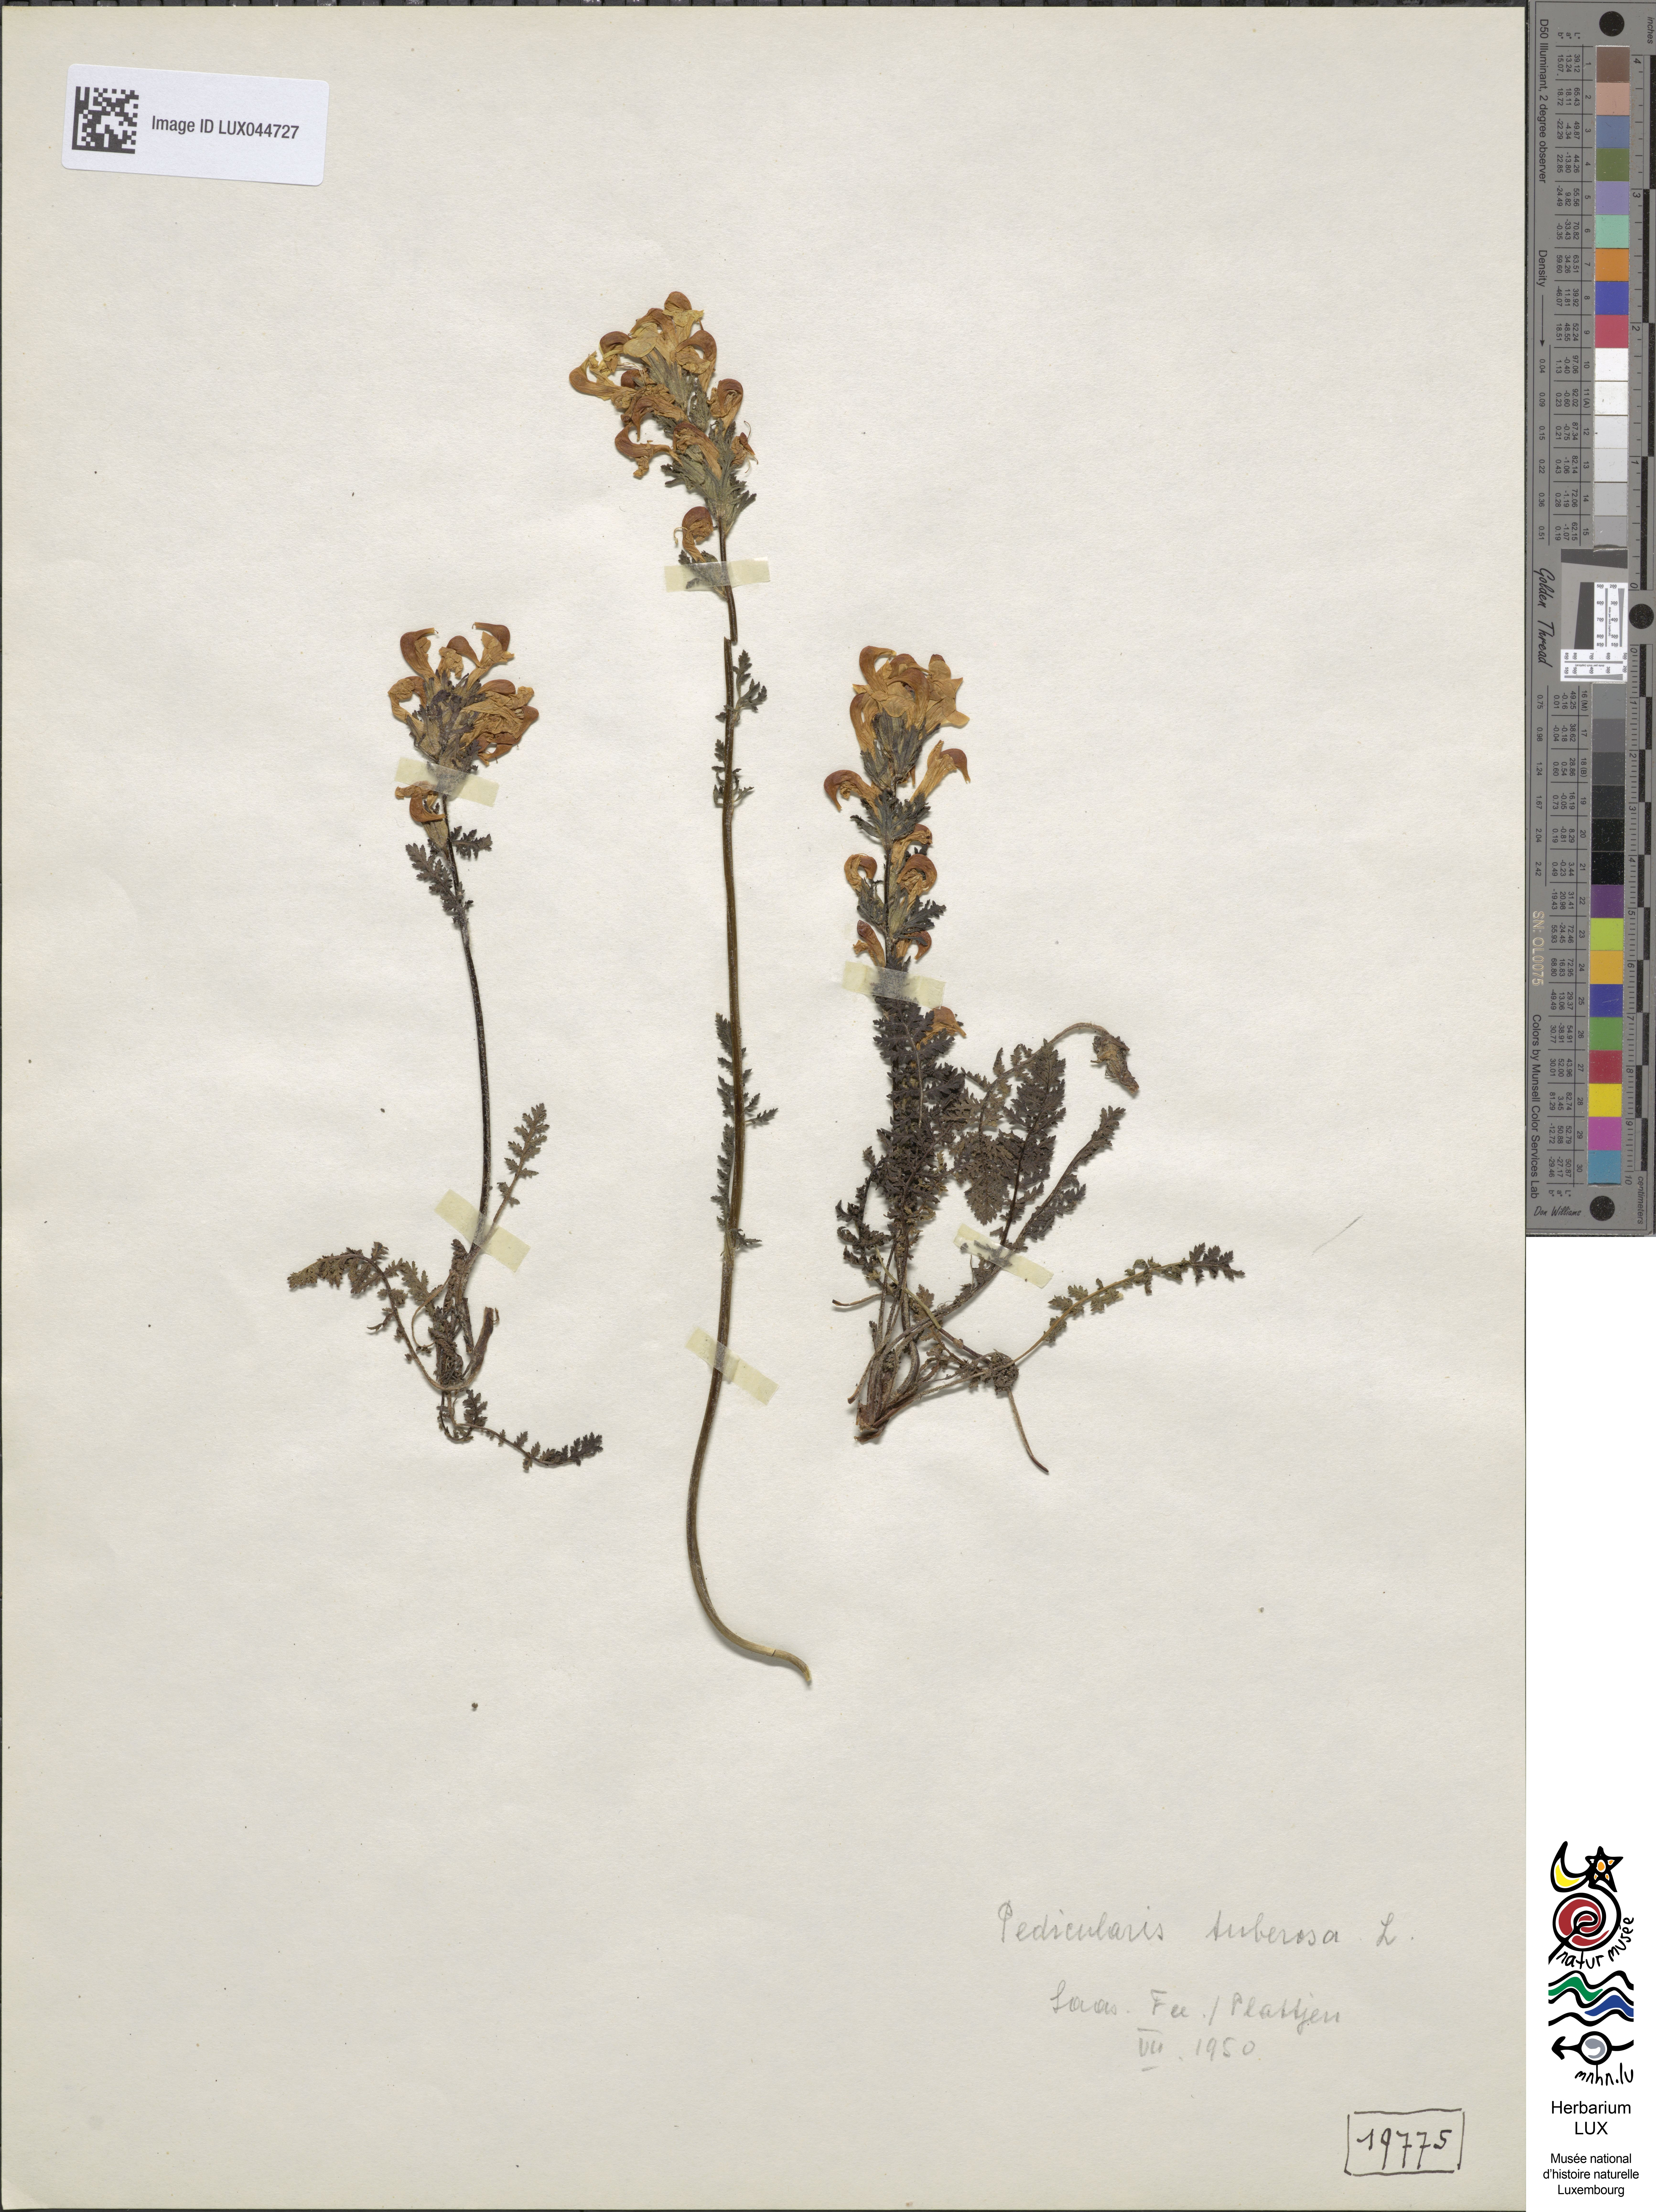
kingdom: Plantae
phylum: Tracheophyta
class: Magnoliopsida
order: Lamiales
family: Orobanchaceae
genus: Pedicularis
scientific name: Pedicularis tuberosa
